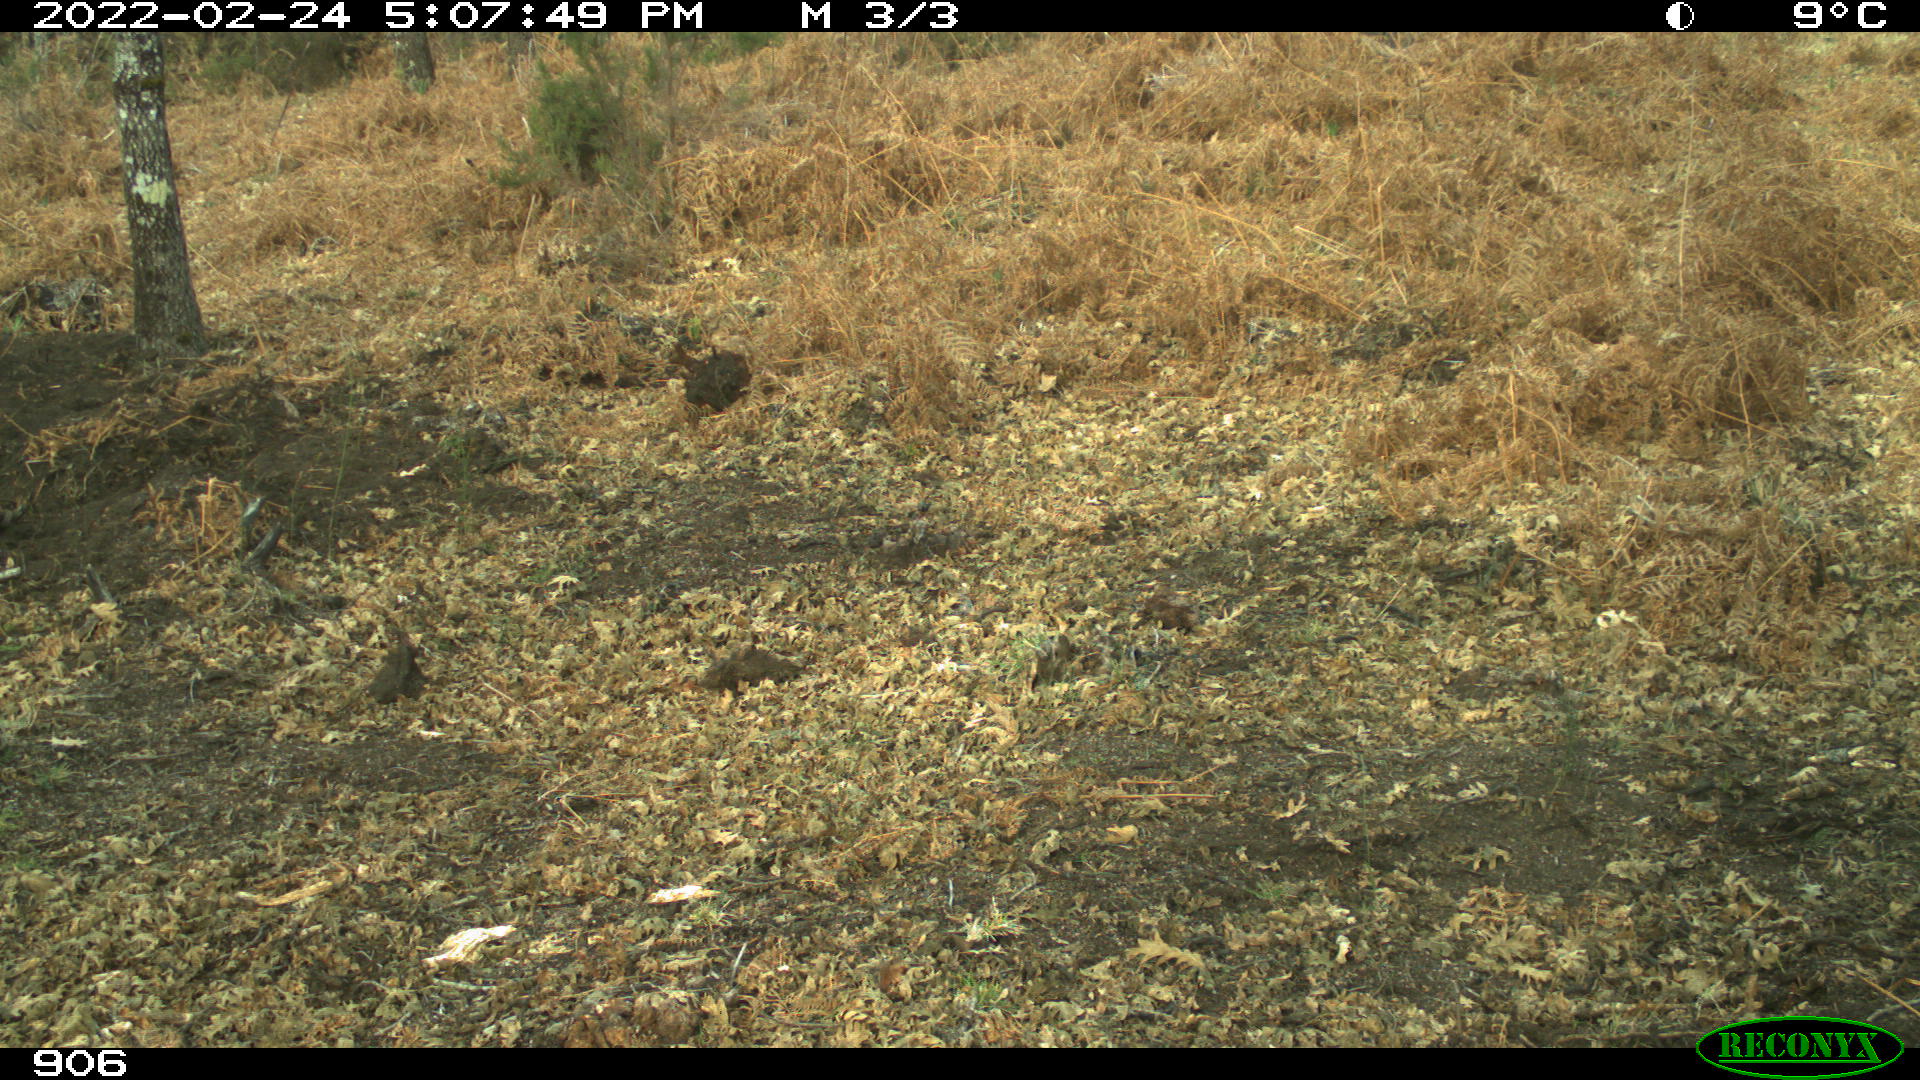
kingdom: Animalia
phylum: Chordata
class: Mammalia
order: Perissodactyla
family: Equidae
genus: Equus
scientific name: Equus caballus
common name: Horse
